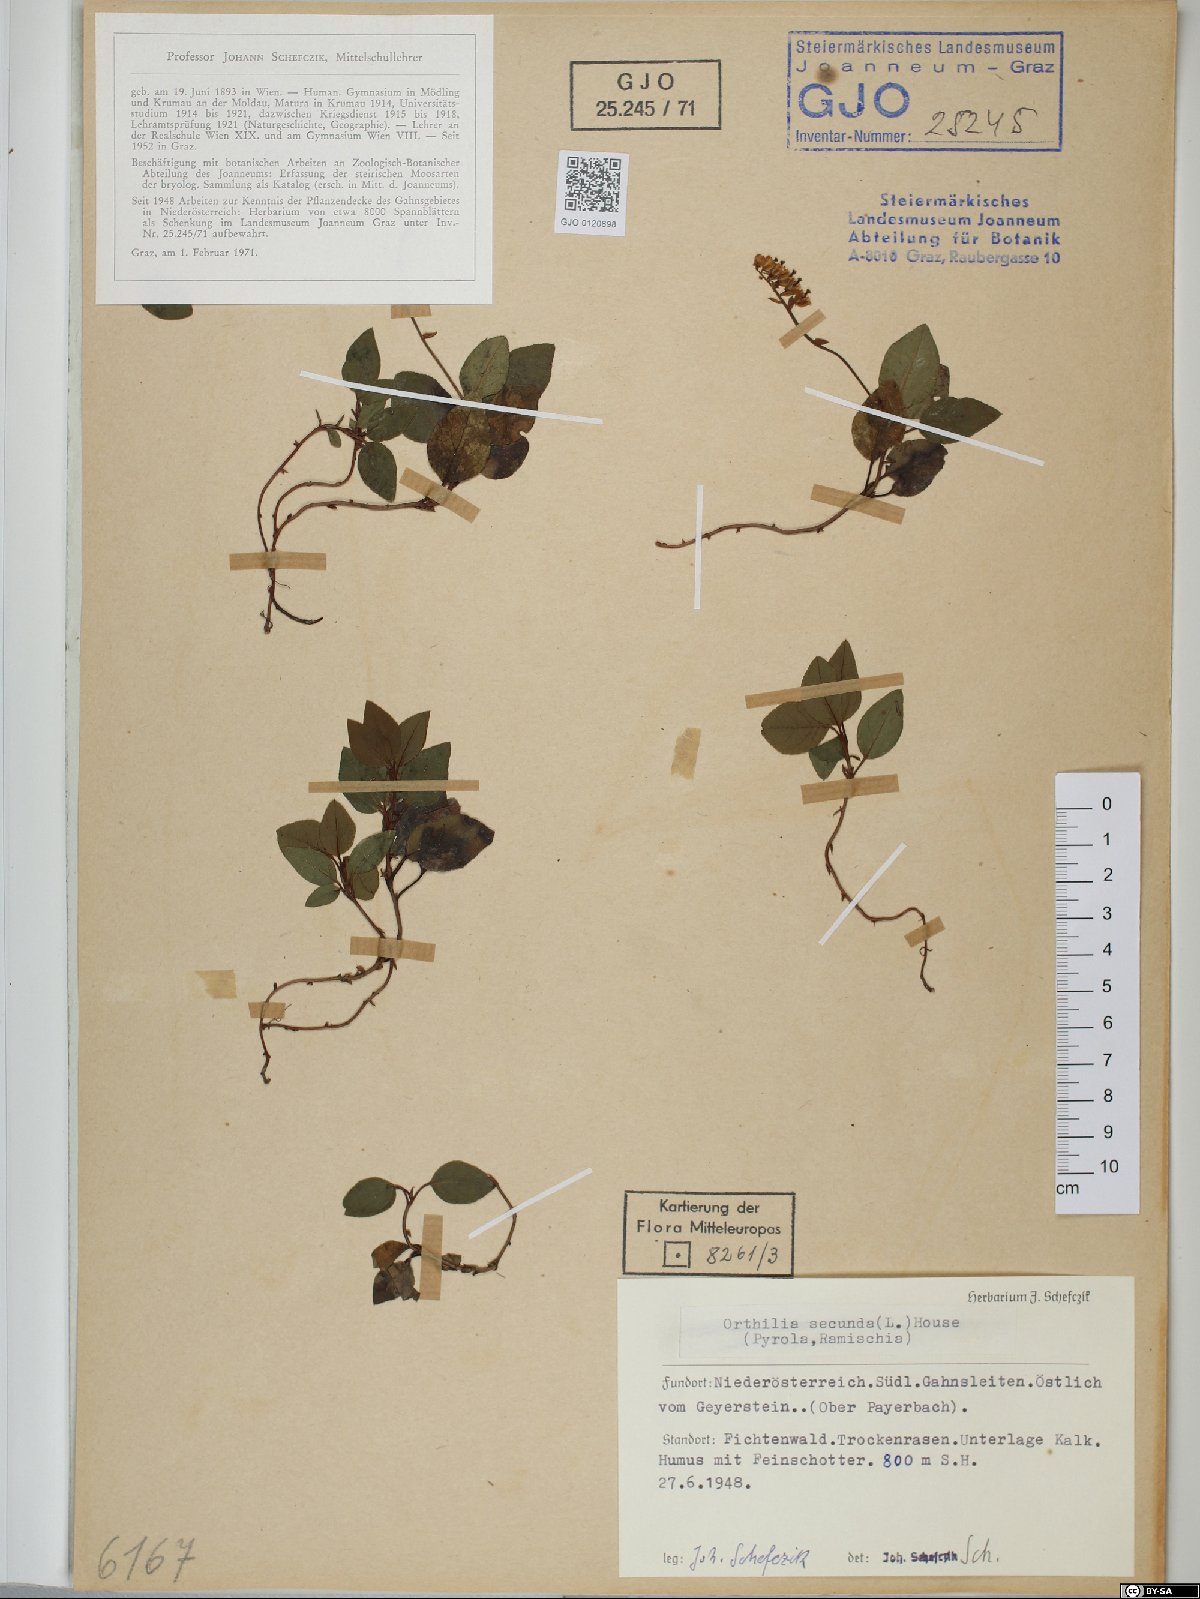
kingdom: Plantae
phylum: Tracheophyta
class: Magnoliopsida
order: Ericales
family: Ericaceae
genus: Orthilia
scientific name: Orthilia secunda
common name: One-sided orthilia
